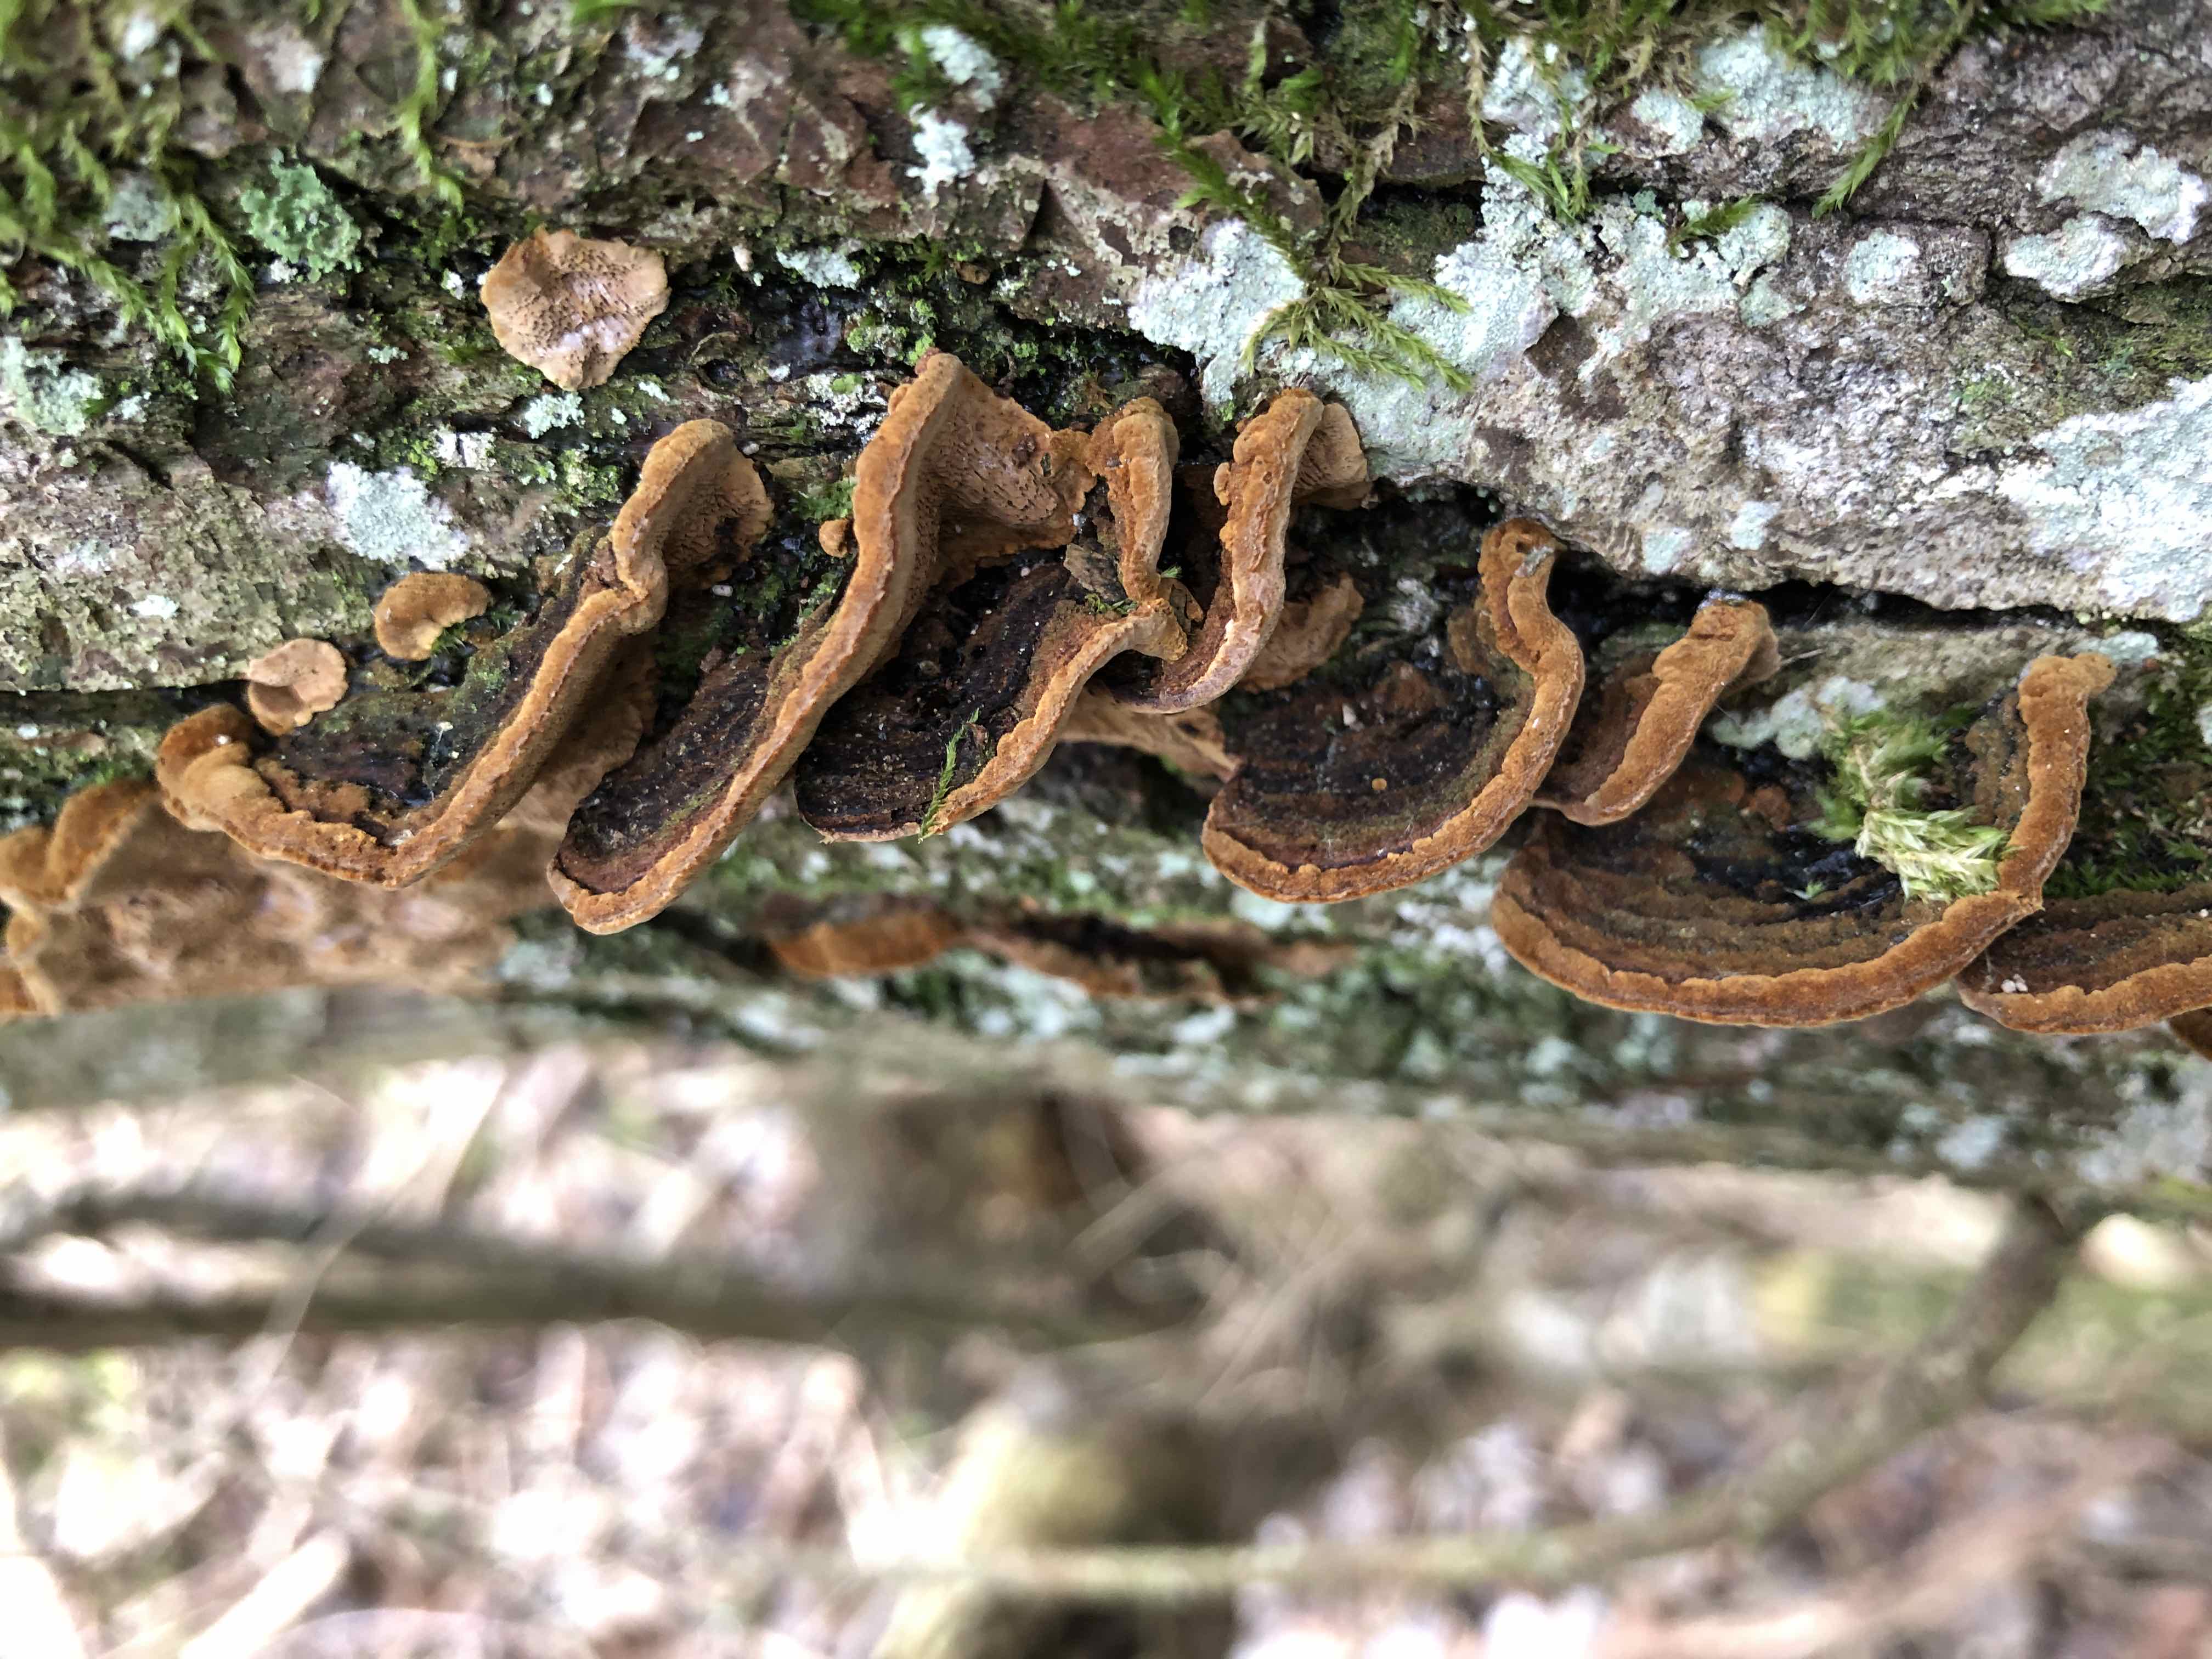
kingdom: Fungi
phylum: Basidiomycota
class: Agaricomycetes
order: Hymenochaetales
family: Hymenochaetaceae
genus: Phellinopsis
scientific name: Phellinopsis conchata
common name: pile-ildporesvamp
